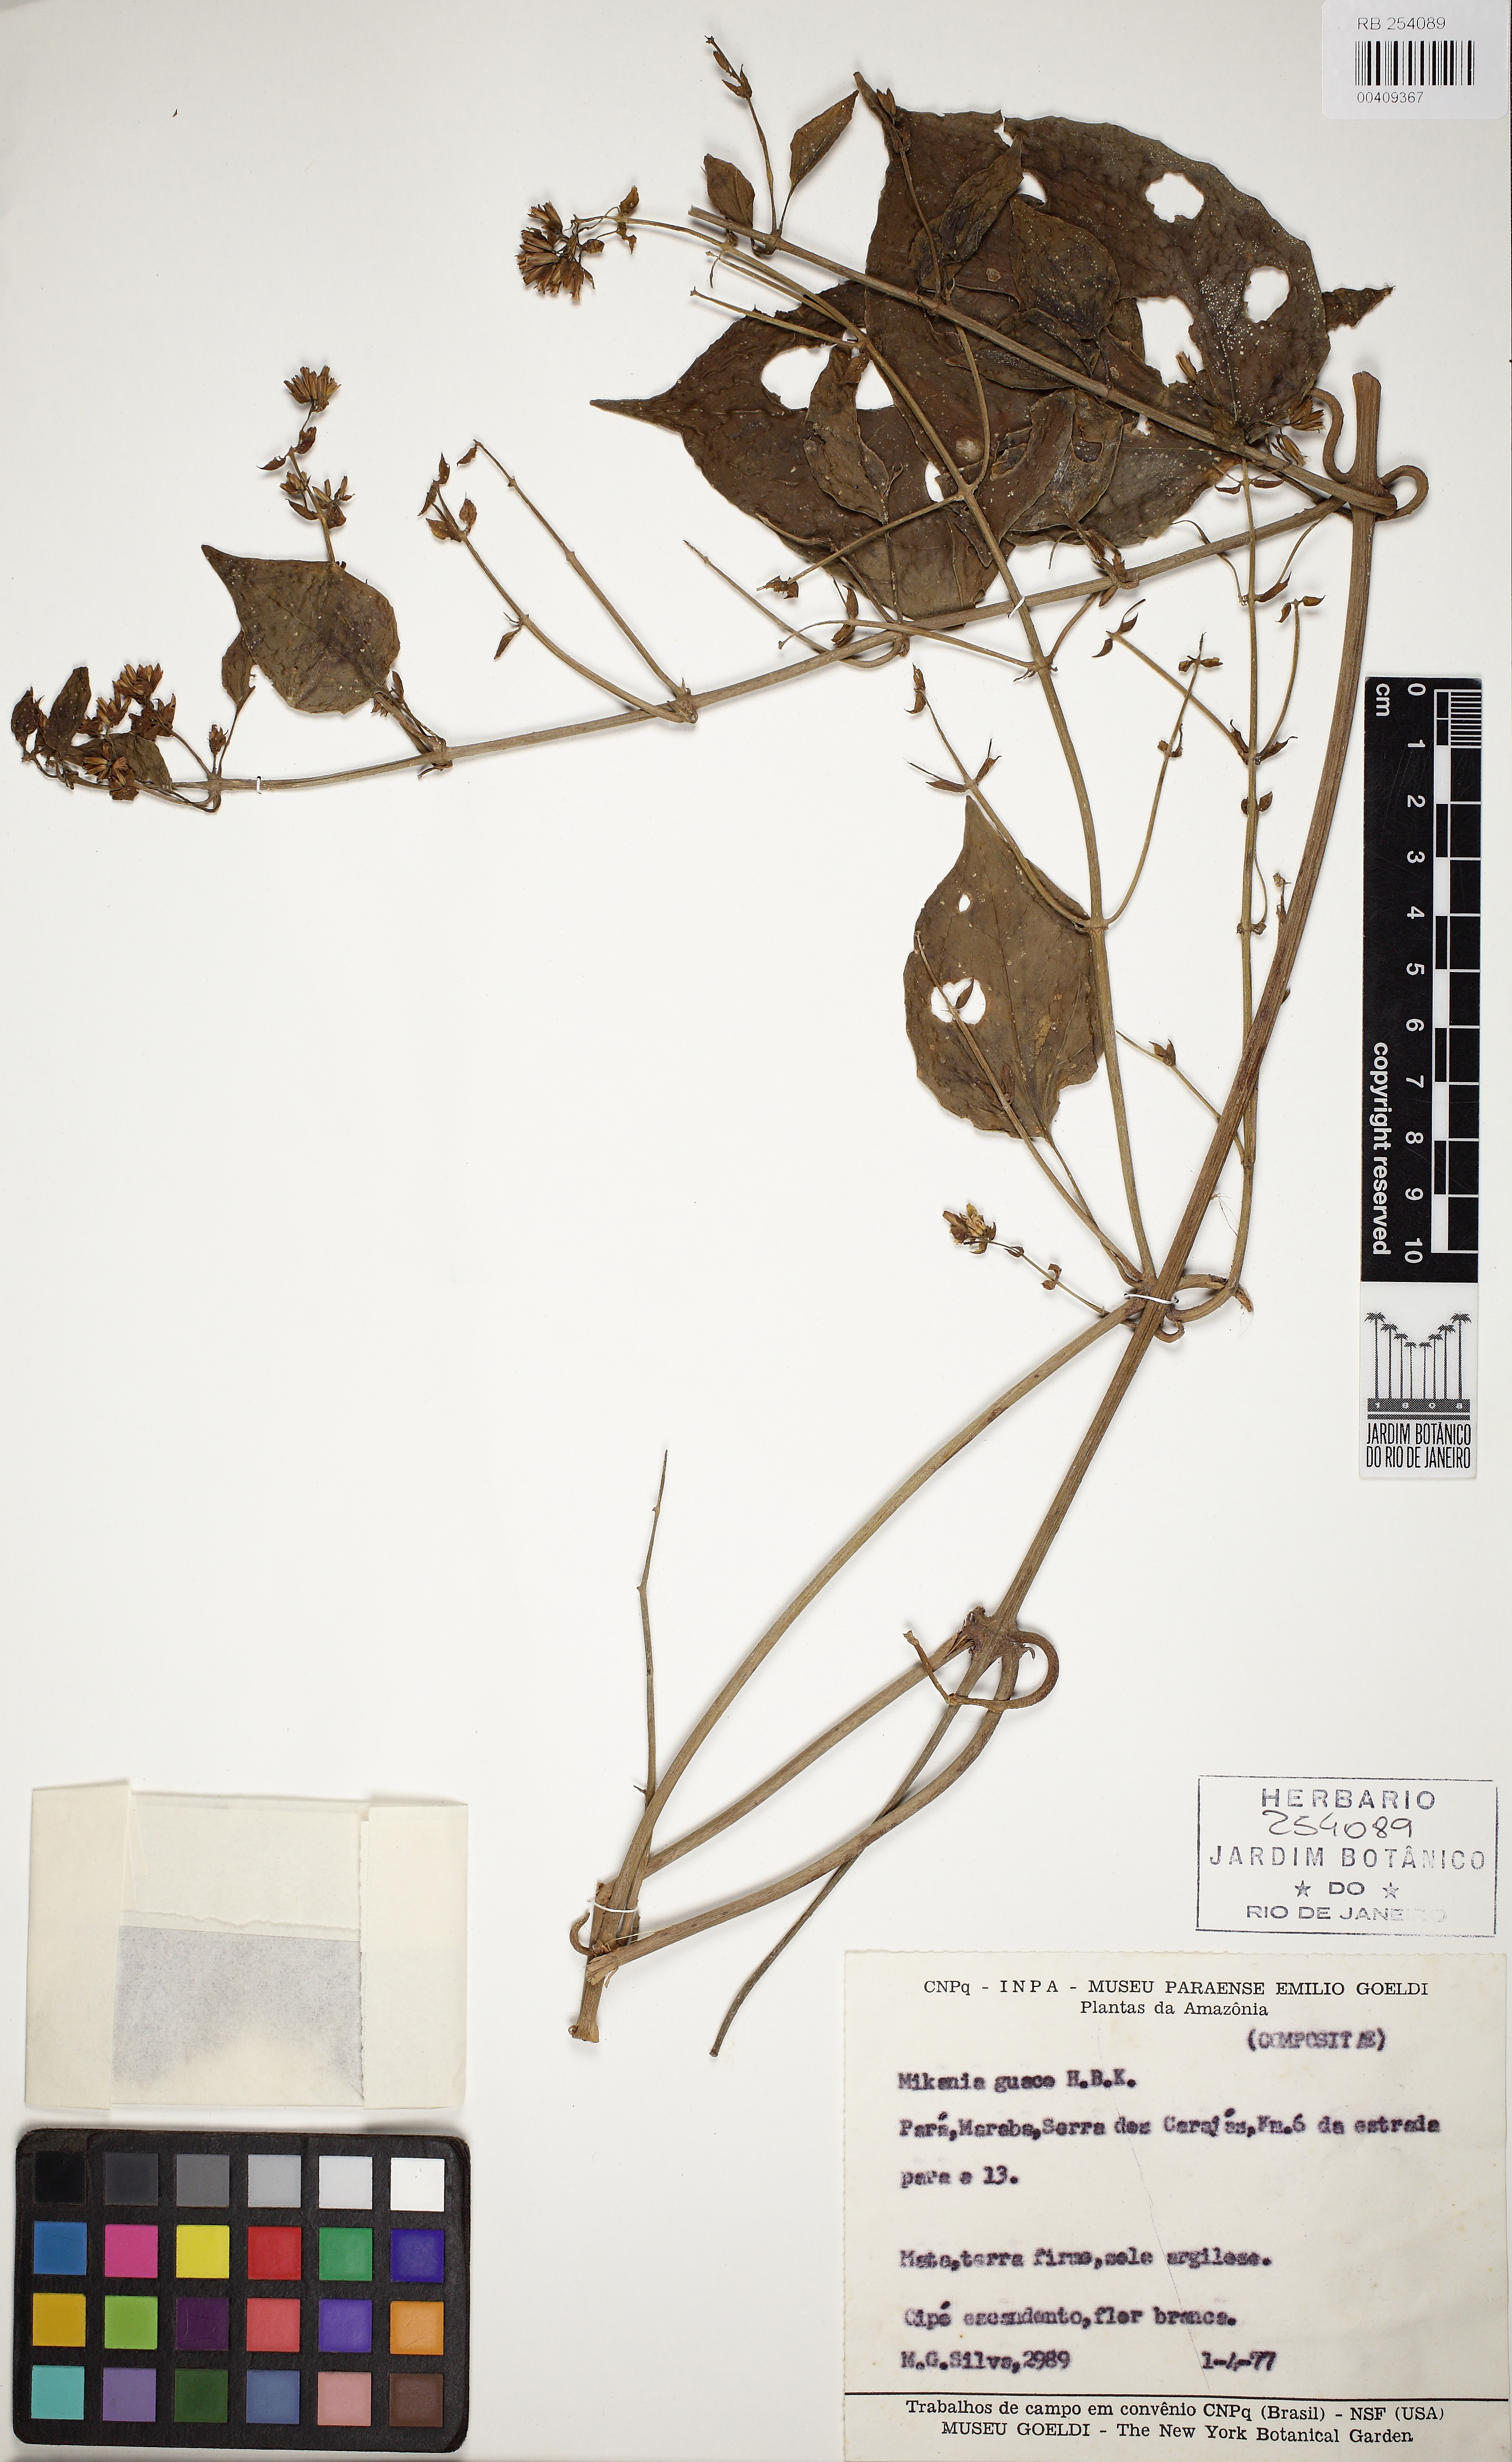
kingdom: Plantae
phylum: Tracheophyta
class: Magnoliopsida
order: Asterales
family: Asteraceae
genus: Mikania
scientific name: Mikania guaco
